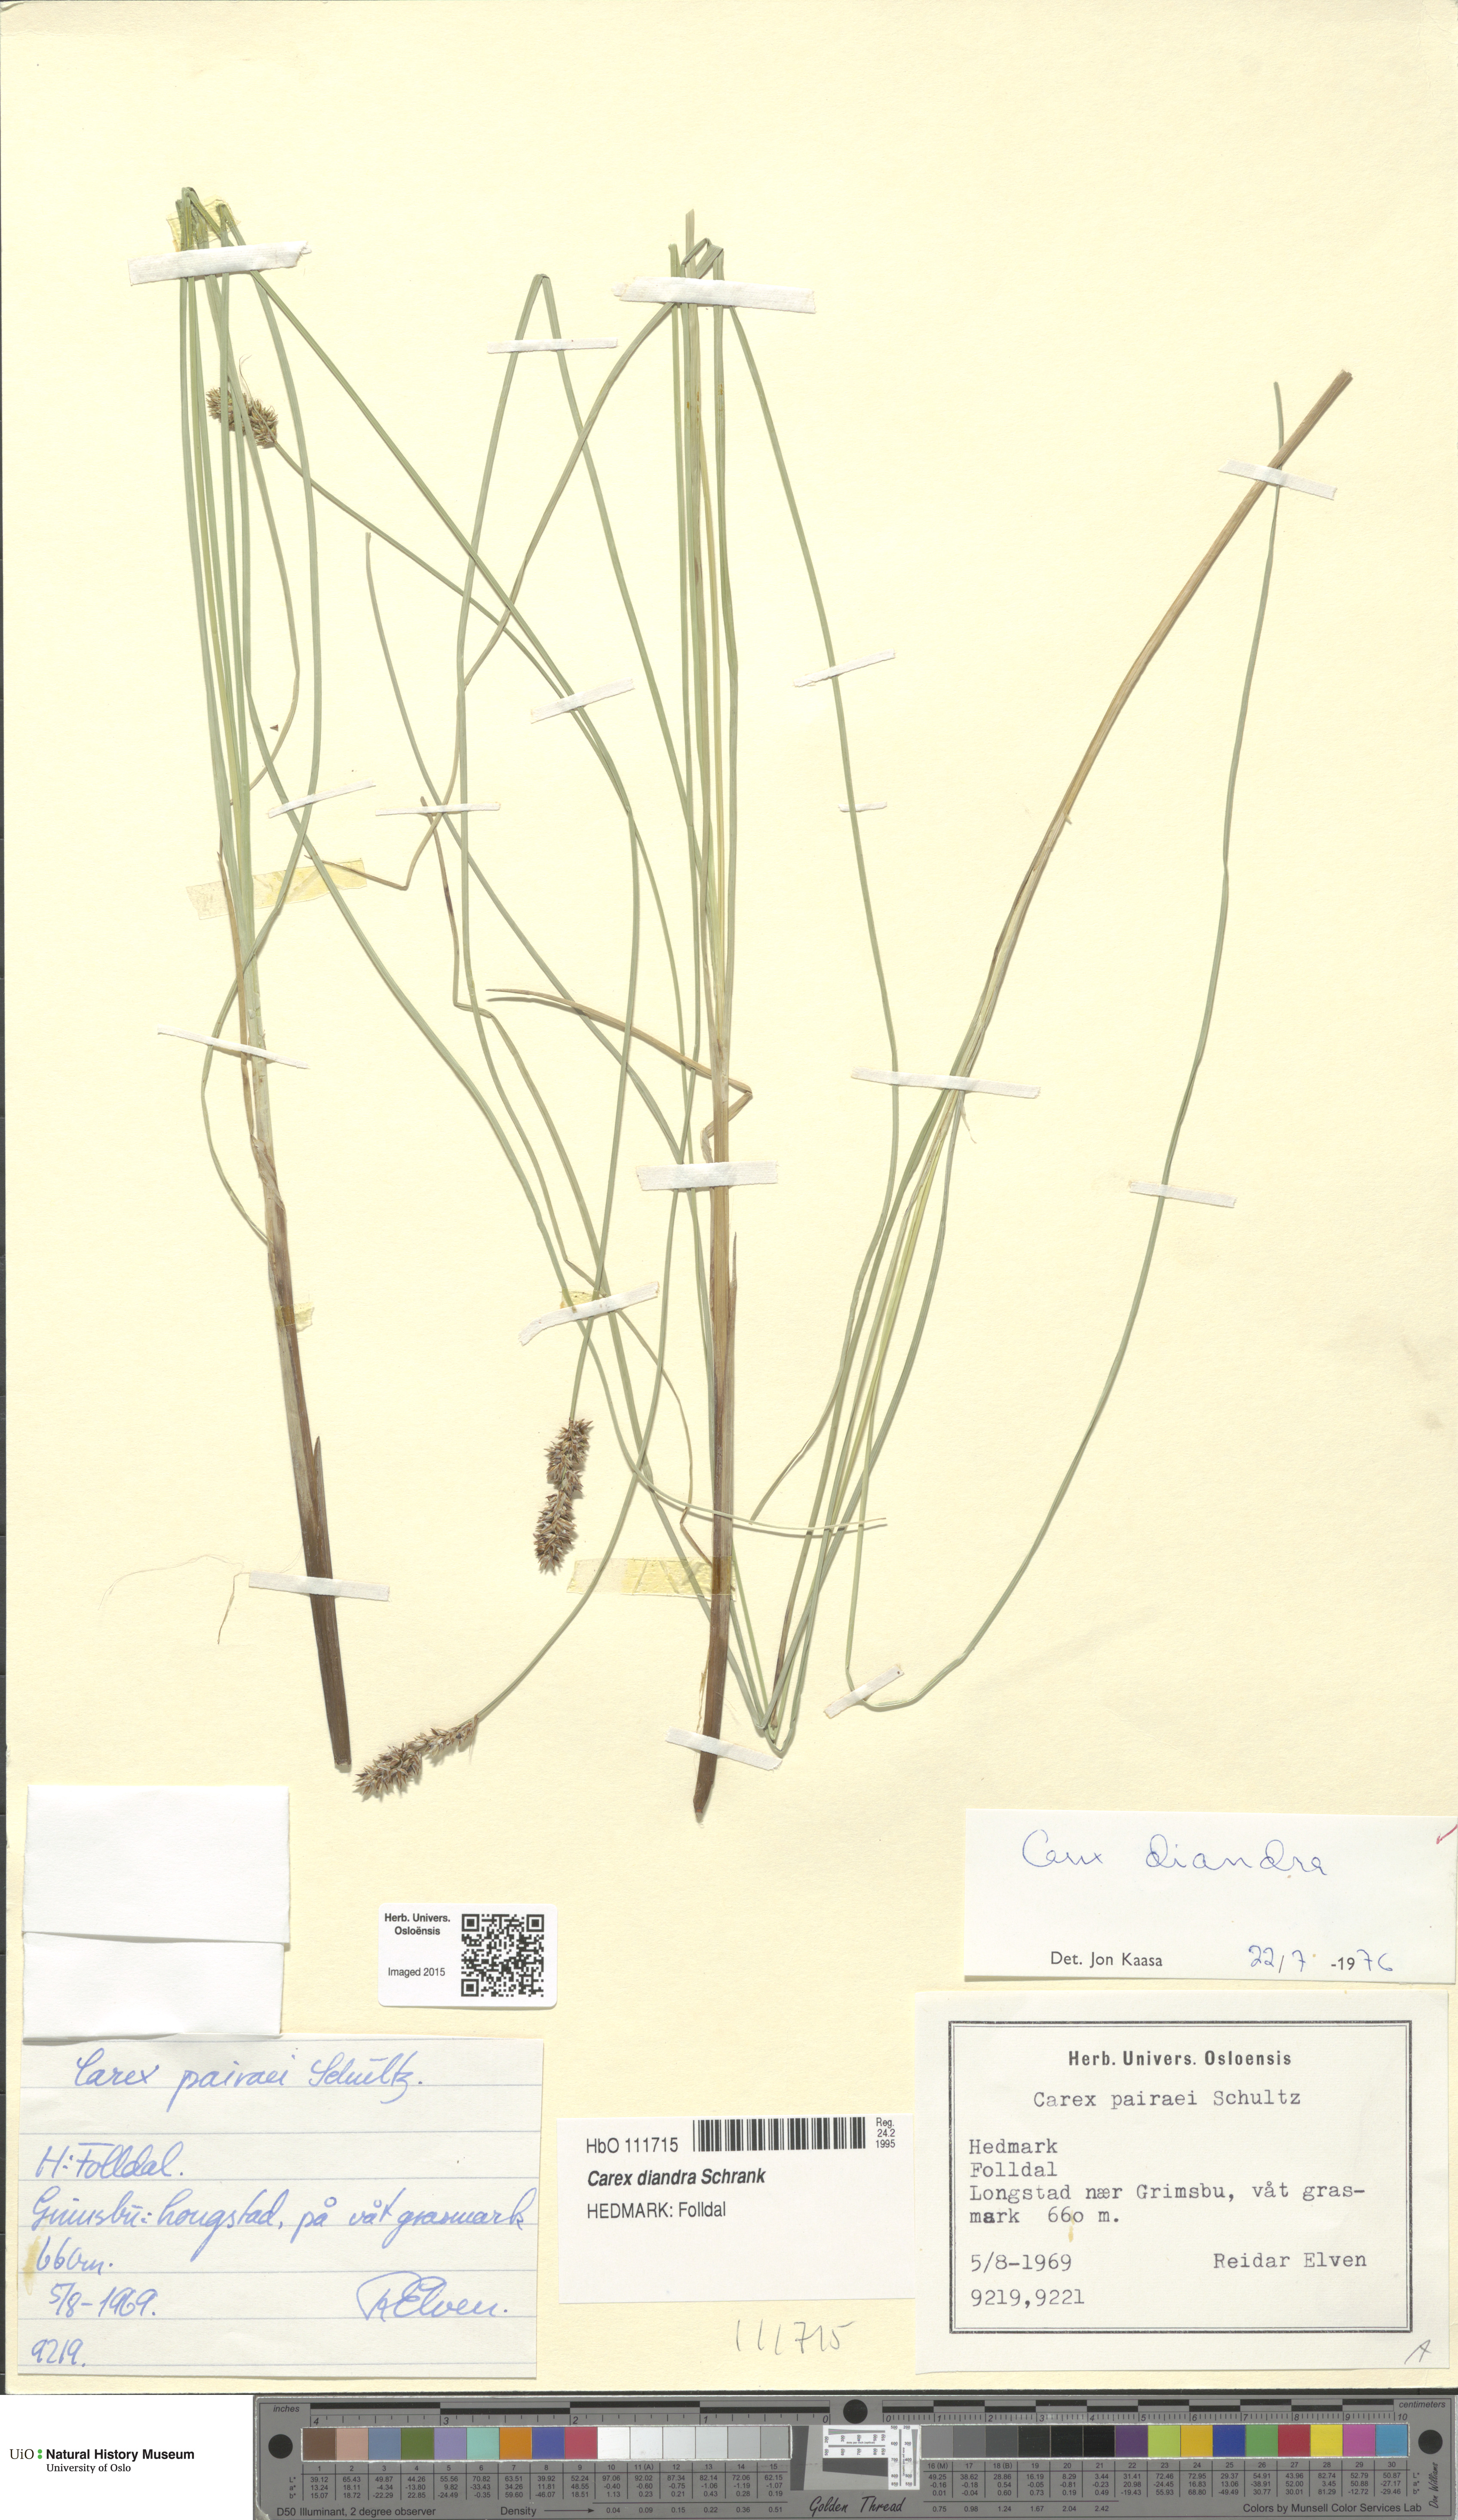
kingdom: Plantae
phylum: Tracheophyta
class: Liliopsida
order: Poales
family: Cyperaceae
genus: Carex
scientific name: Carex diandra
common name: Lesser tussock-sedge
